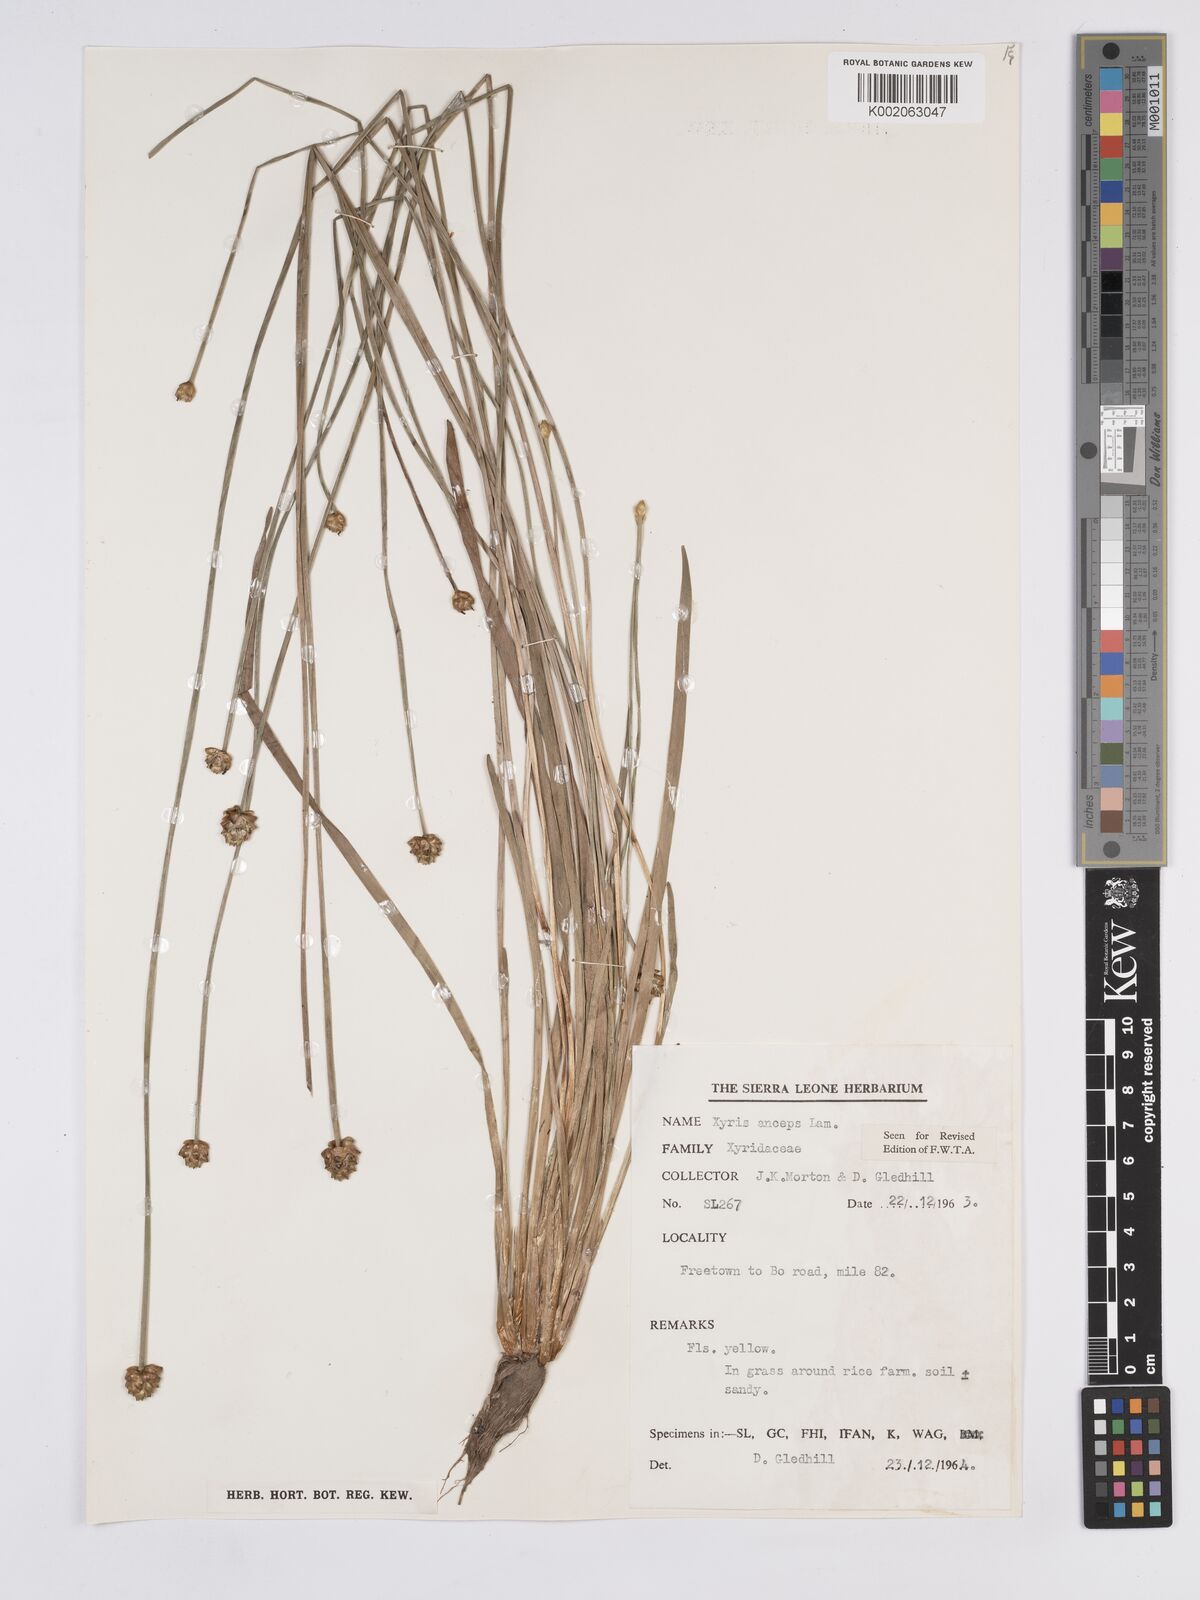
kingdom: Plantae
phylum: Tracheophyta
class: Liliopsida
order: Poales
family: Xyridaceae
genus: Xyris
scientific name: Xyris anceps
